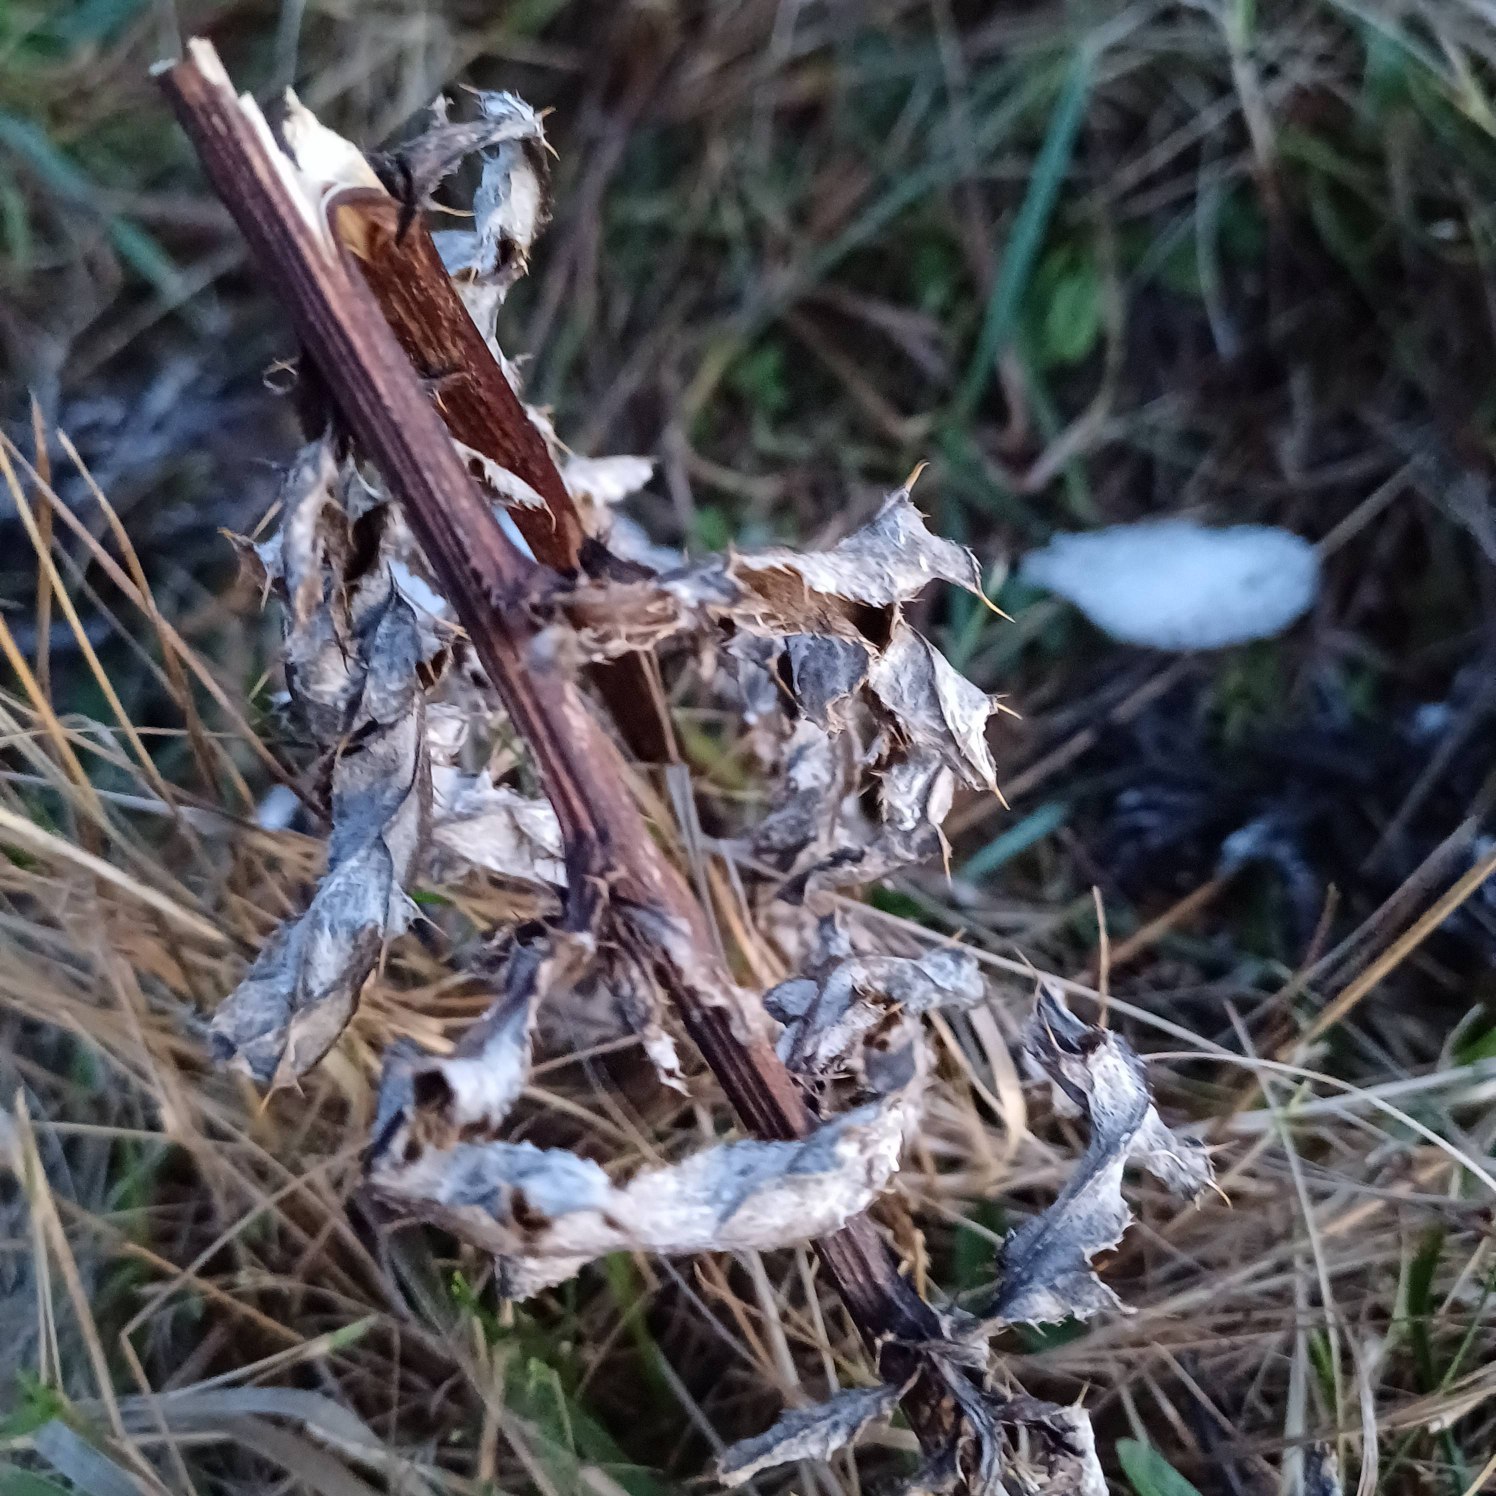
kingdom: Plantae
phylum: Tracheophyta
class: Magnoliopsida
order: Asterales
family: Asteraceae
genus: Cirsium
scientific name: Cirsium arvense
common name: Ager-tidsel
